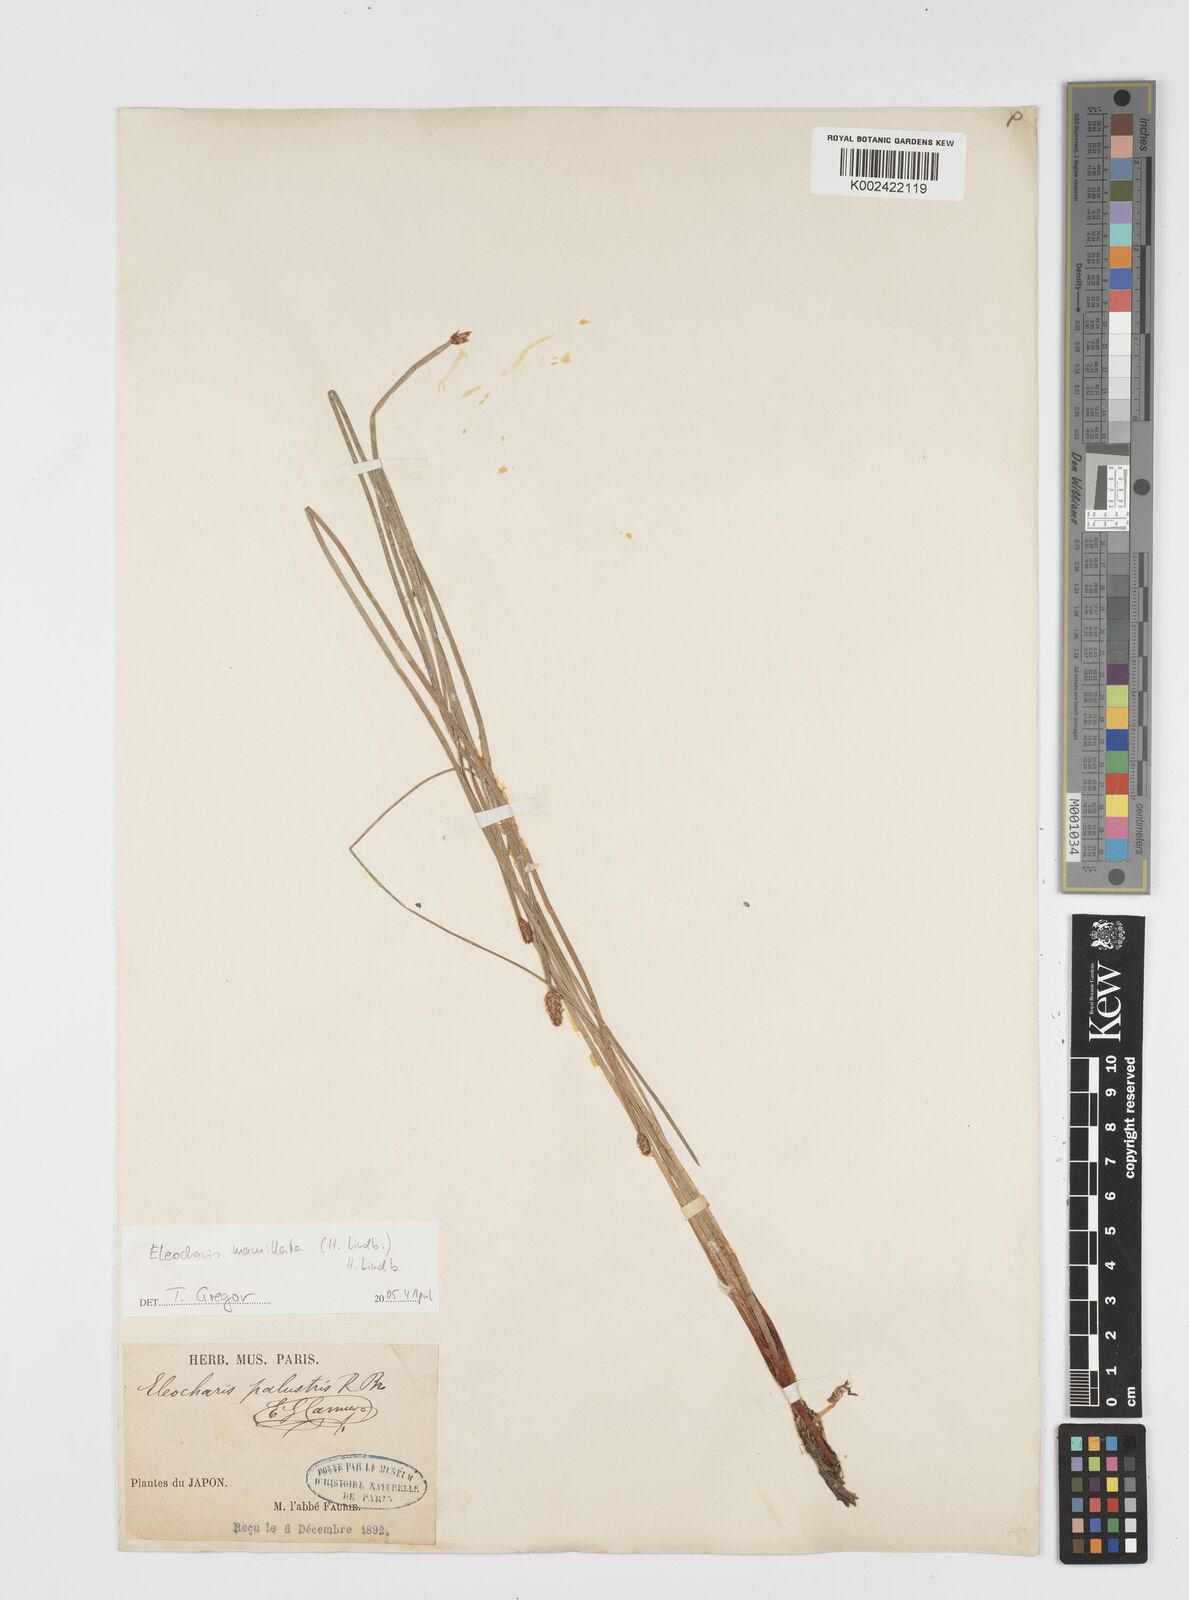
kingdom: Plantae
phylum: Tracheophyta
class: Liliopsida
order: Poales
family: Cyperaceae
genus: Eleocharis
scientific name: Eleocharis mamillata
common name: Northern spike-rush
